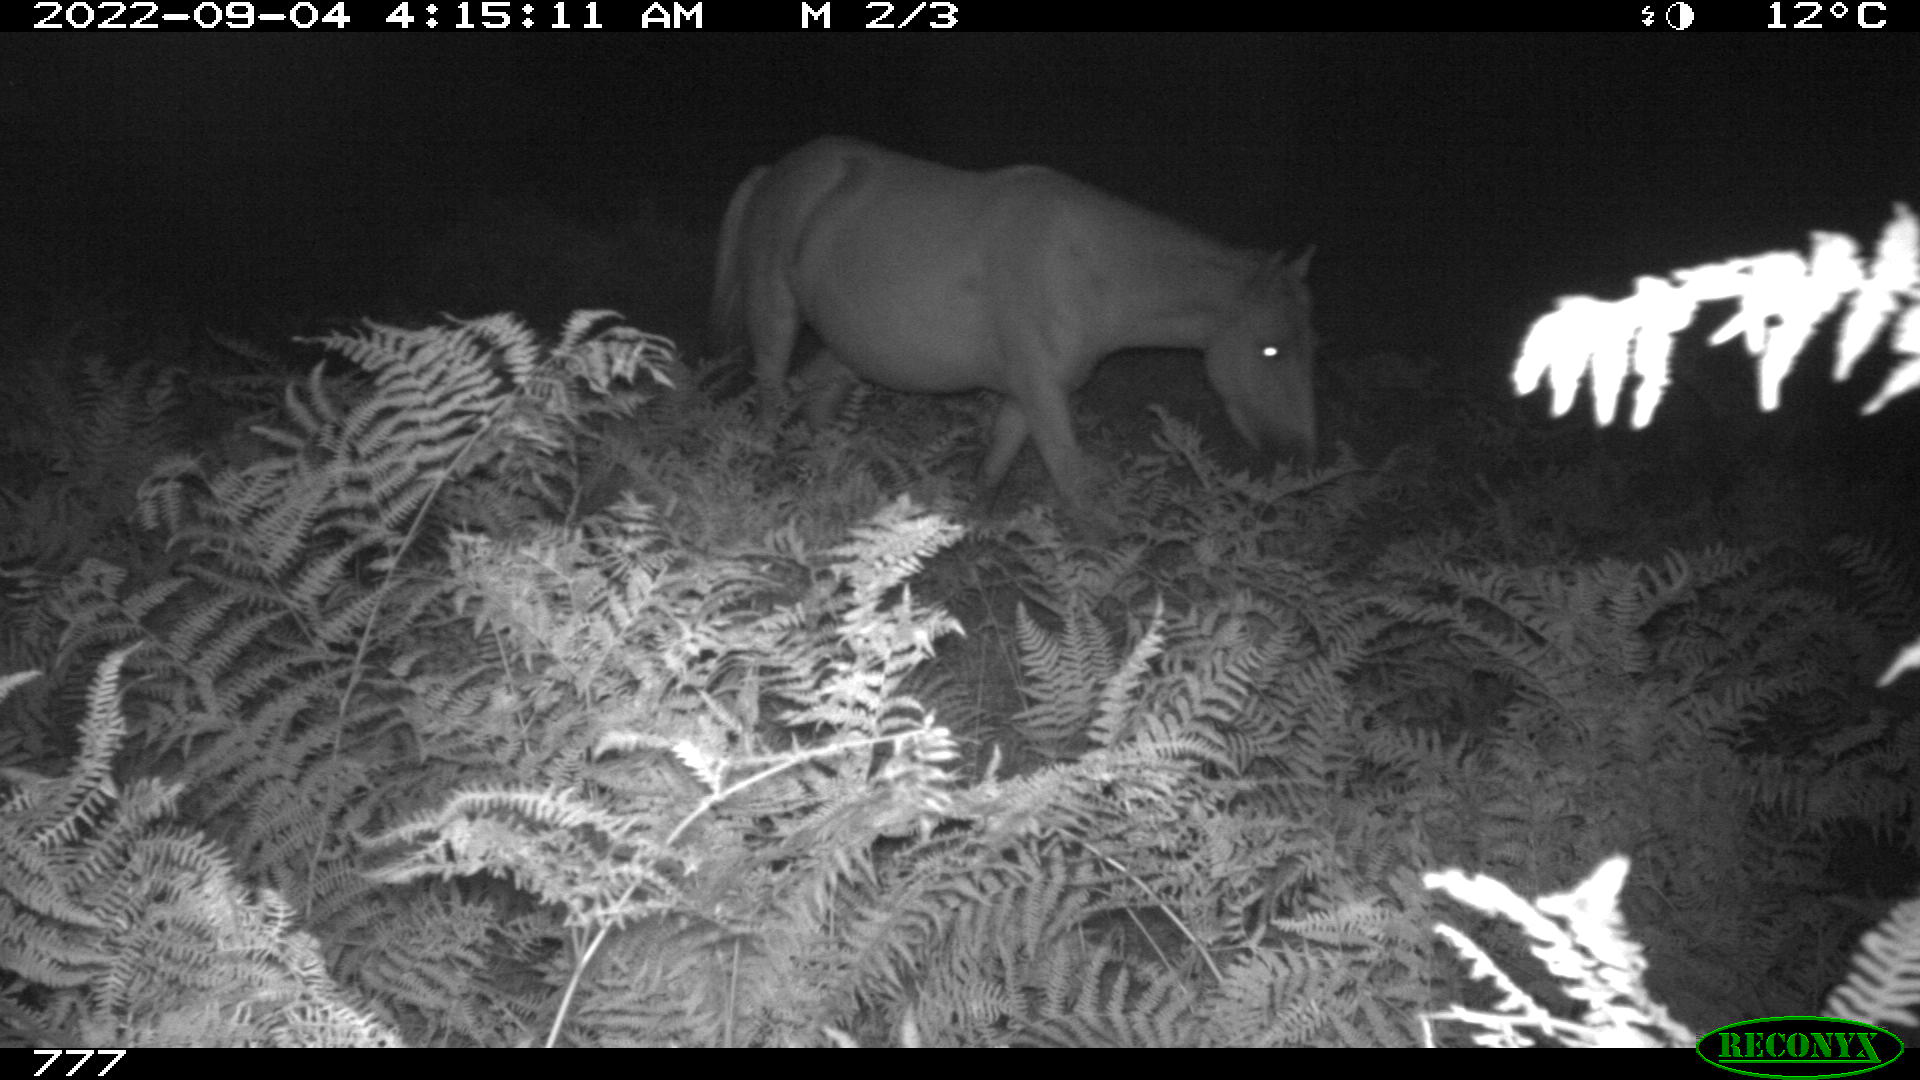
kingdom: Animalia
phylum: Chordata
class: Mammalia
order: Perissodactyla
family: Equidae
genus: Equus
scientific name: Equus caballus
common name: Horse
